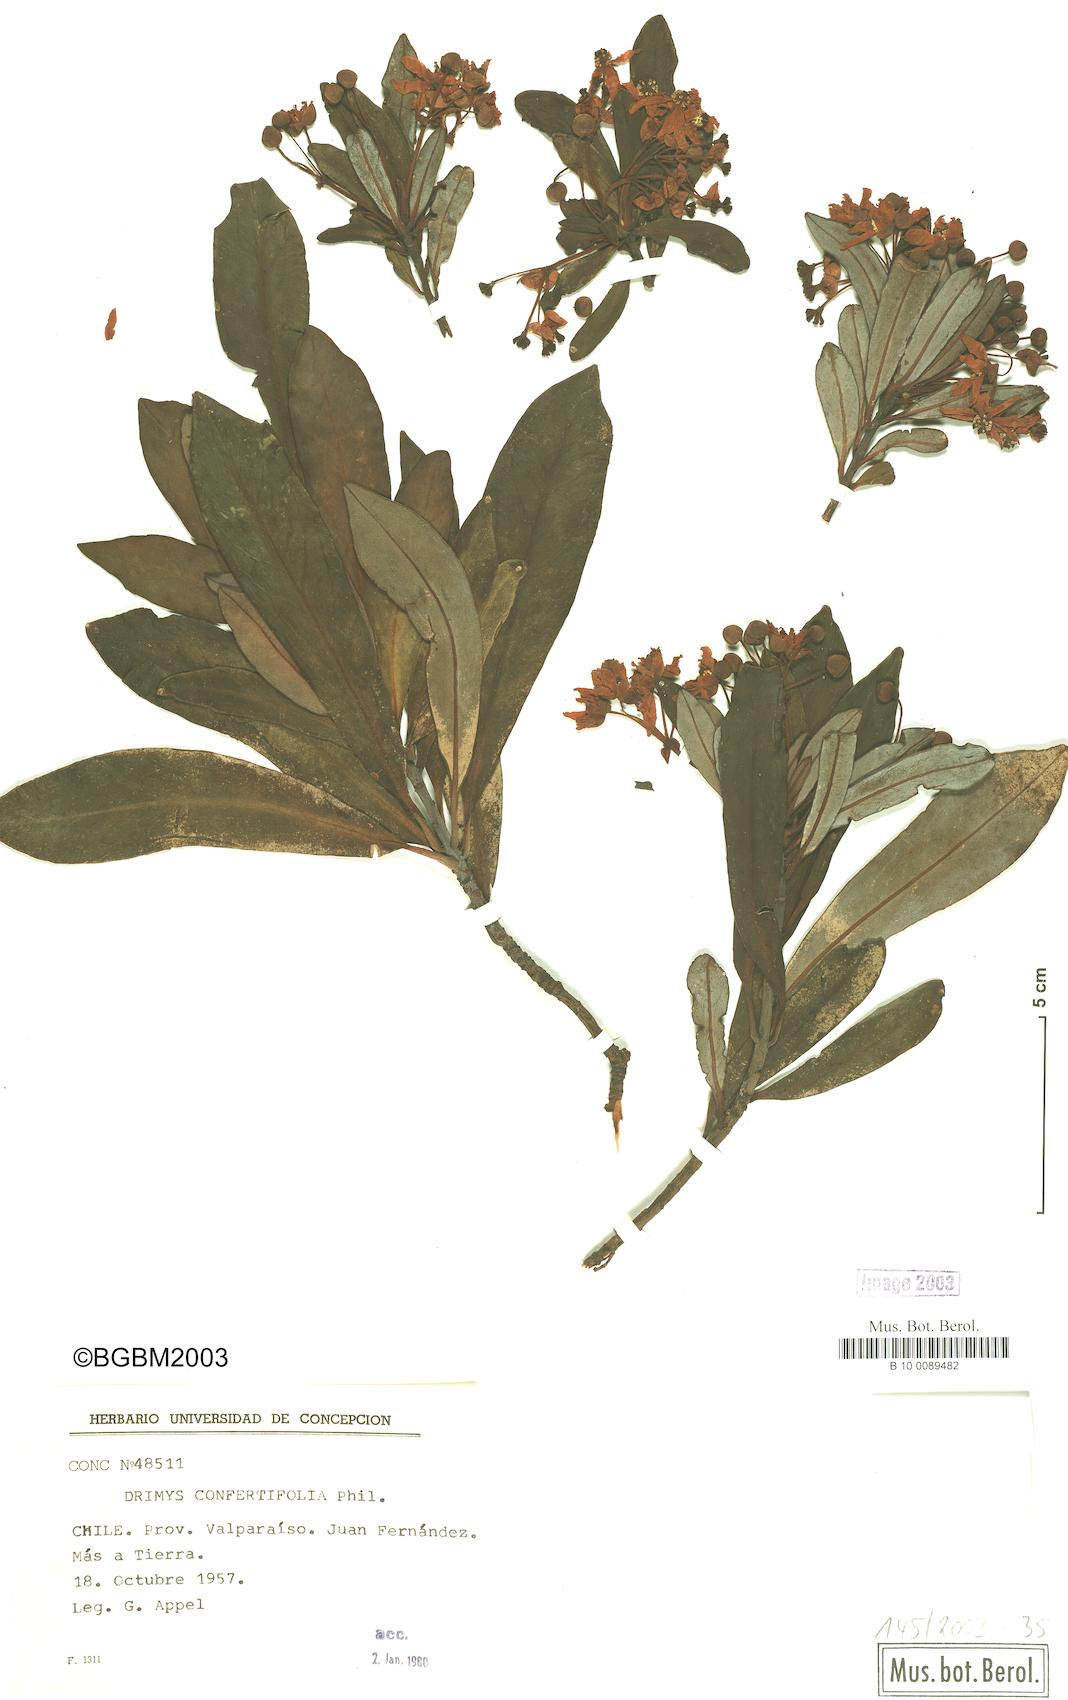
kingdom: Plantae
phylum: Tracheophyta
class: Magnoliopsida
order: Canellales
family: Winteraceae
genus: Drimys
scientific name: Drimys confertiflora
